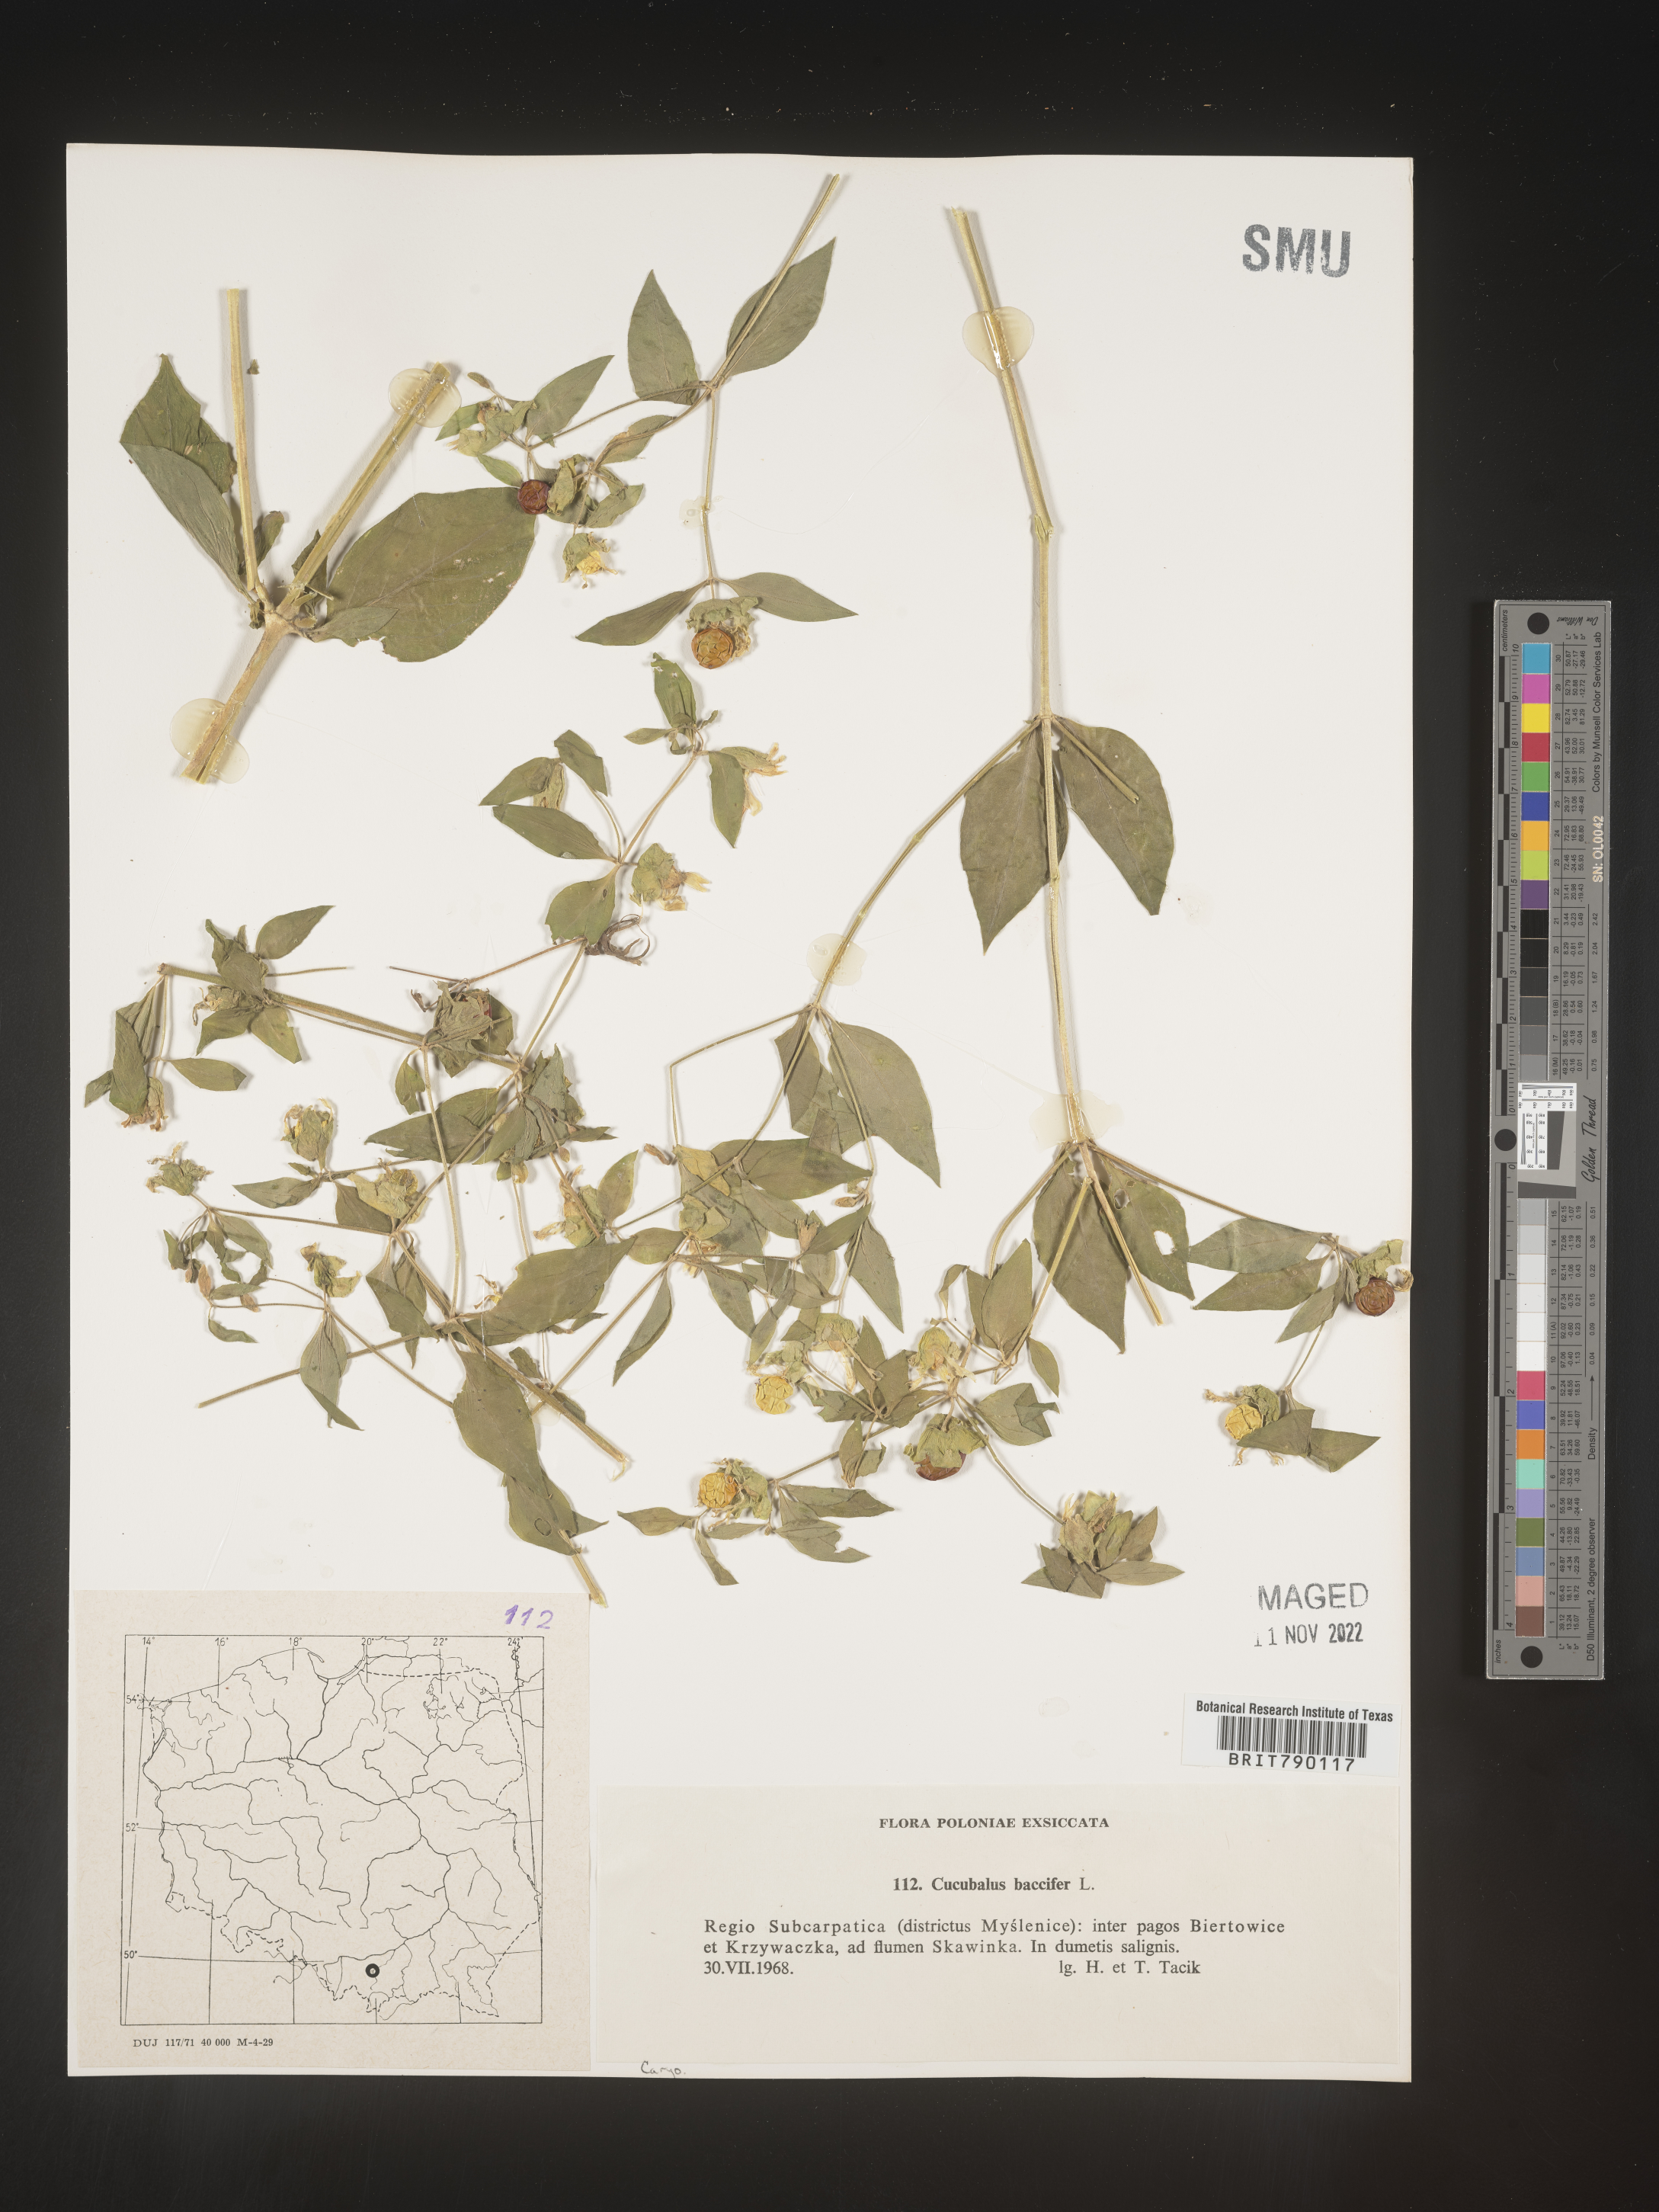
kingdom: Animalia
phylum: Cnidaria
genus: Cucubalus
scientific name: Cucubalus
